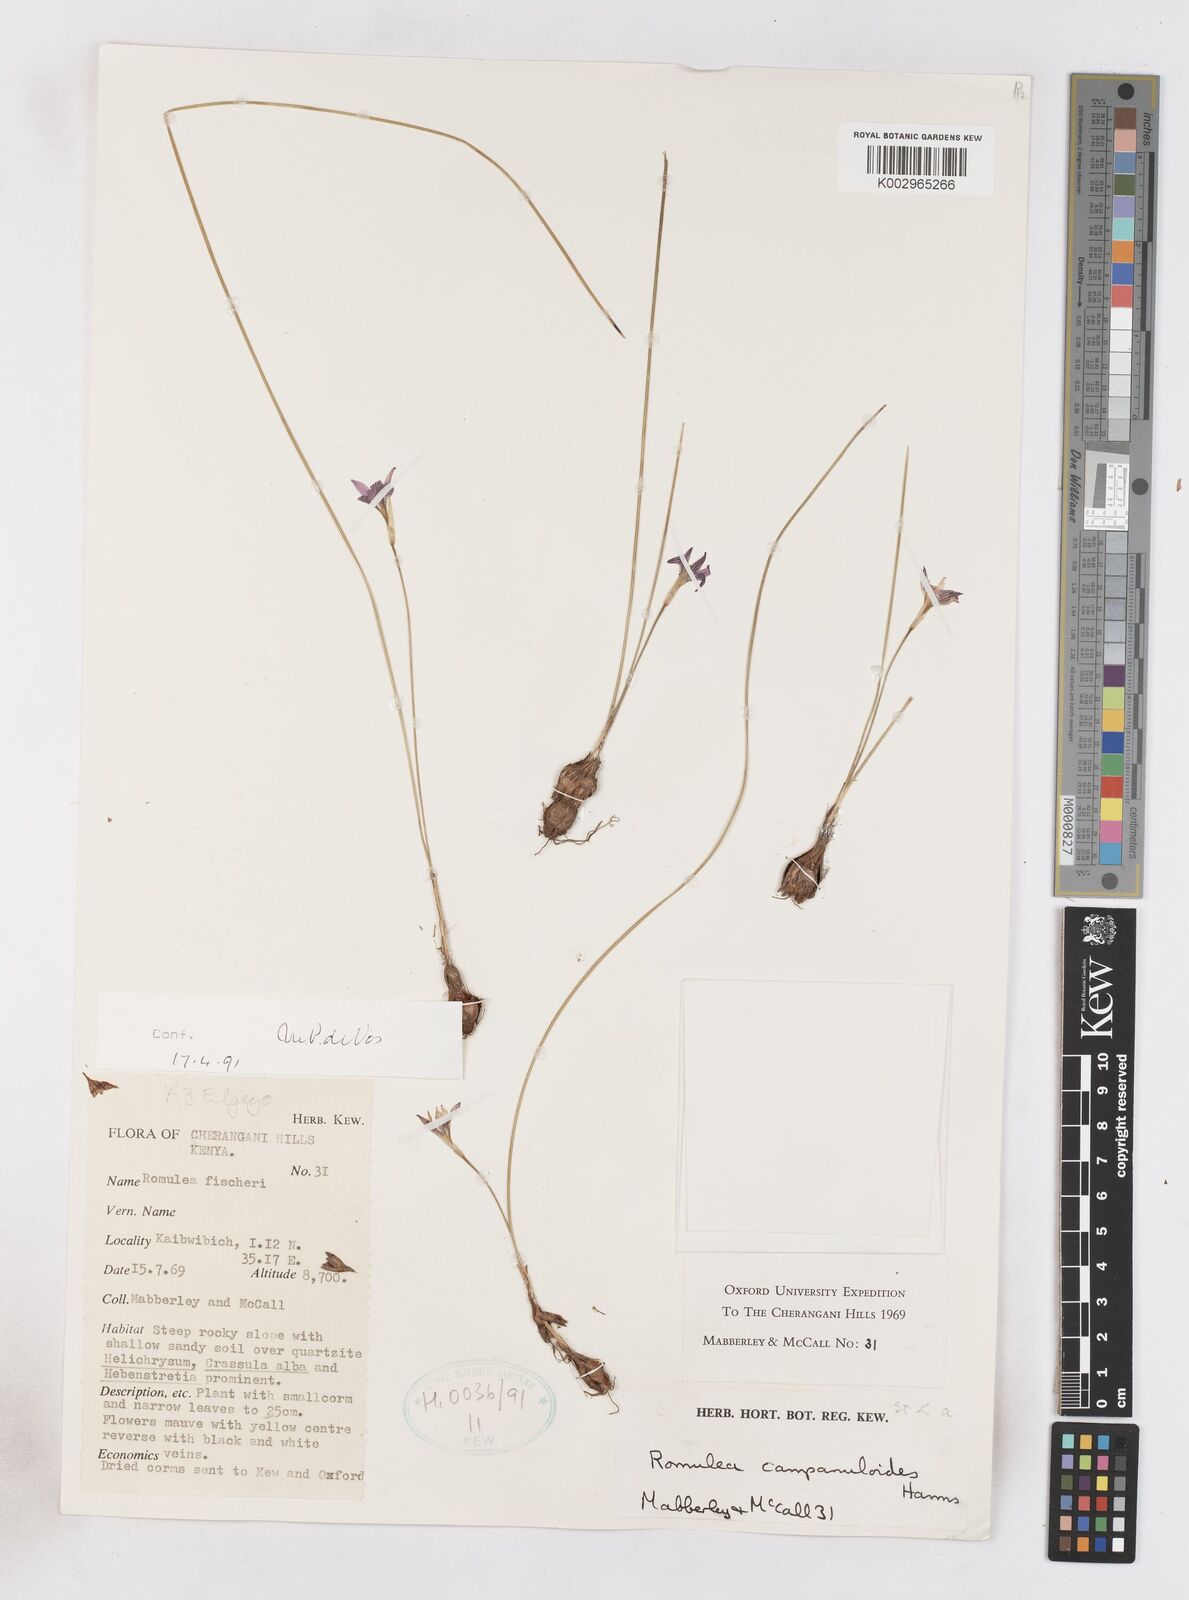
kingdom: Plantae
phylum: Tracheophyta
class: Liliopsida
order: Asparagales
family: Iridaceae
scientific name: Iridaceae
